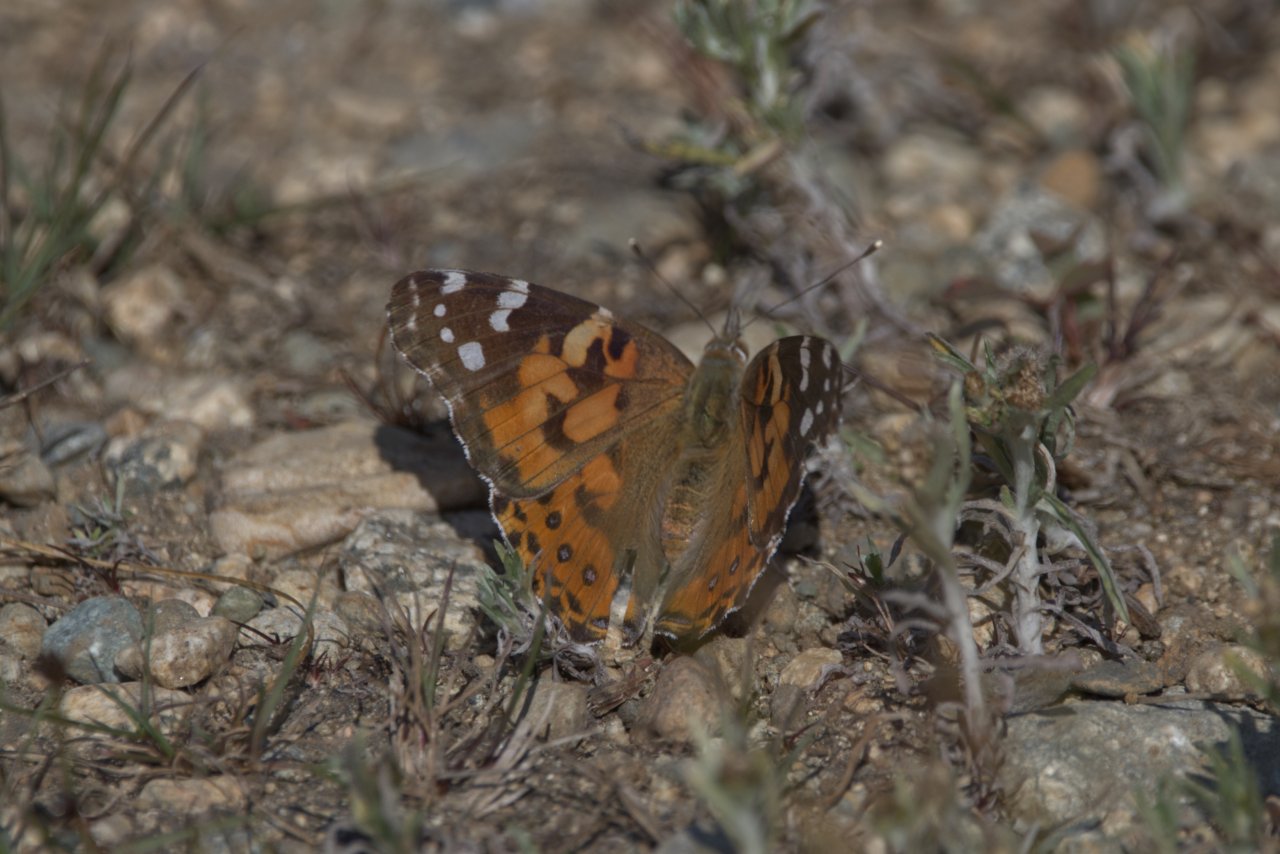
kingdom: Animalia
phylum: Arthropoda
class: Insecta
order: Lepidoptera
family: Nymphalidae
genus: Vanessa
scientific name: Vanessa cardui
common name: Painted Lady
